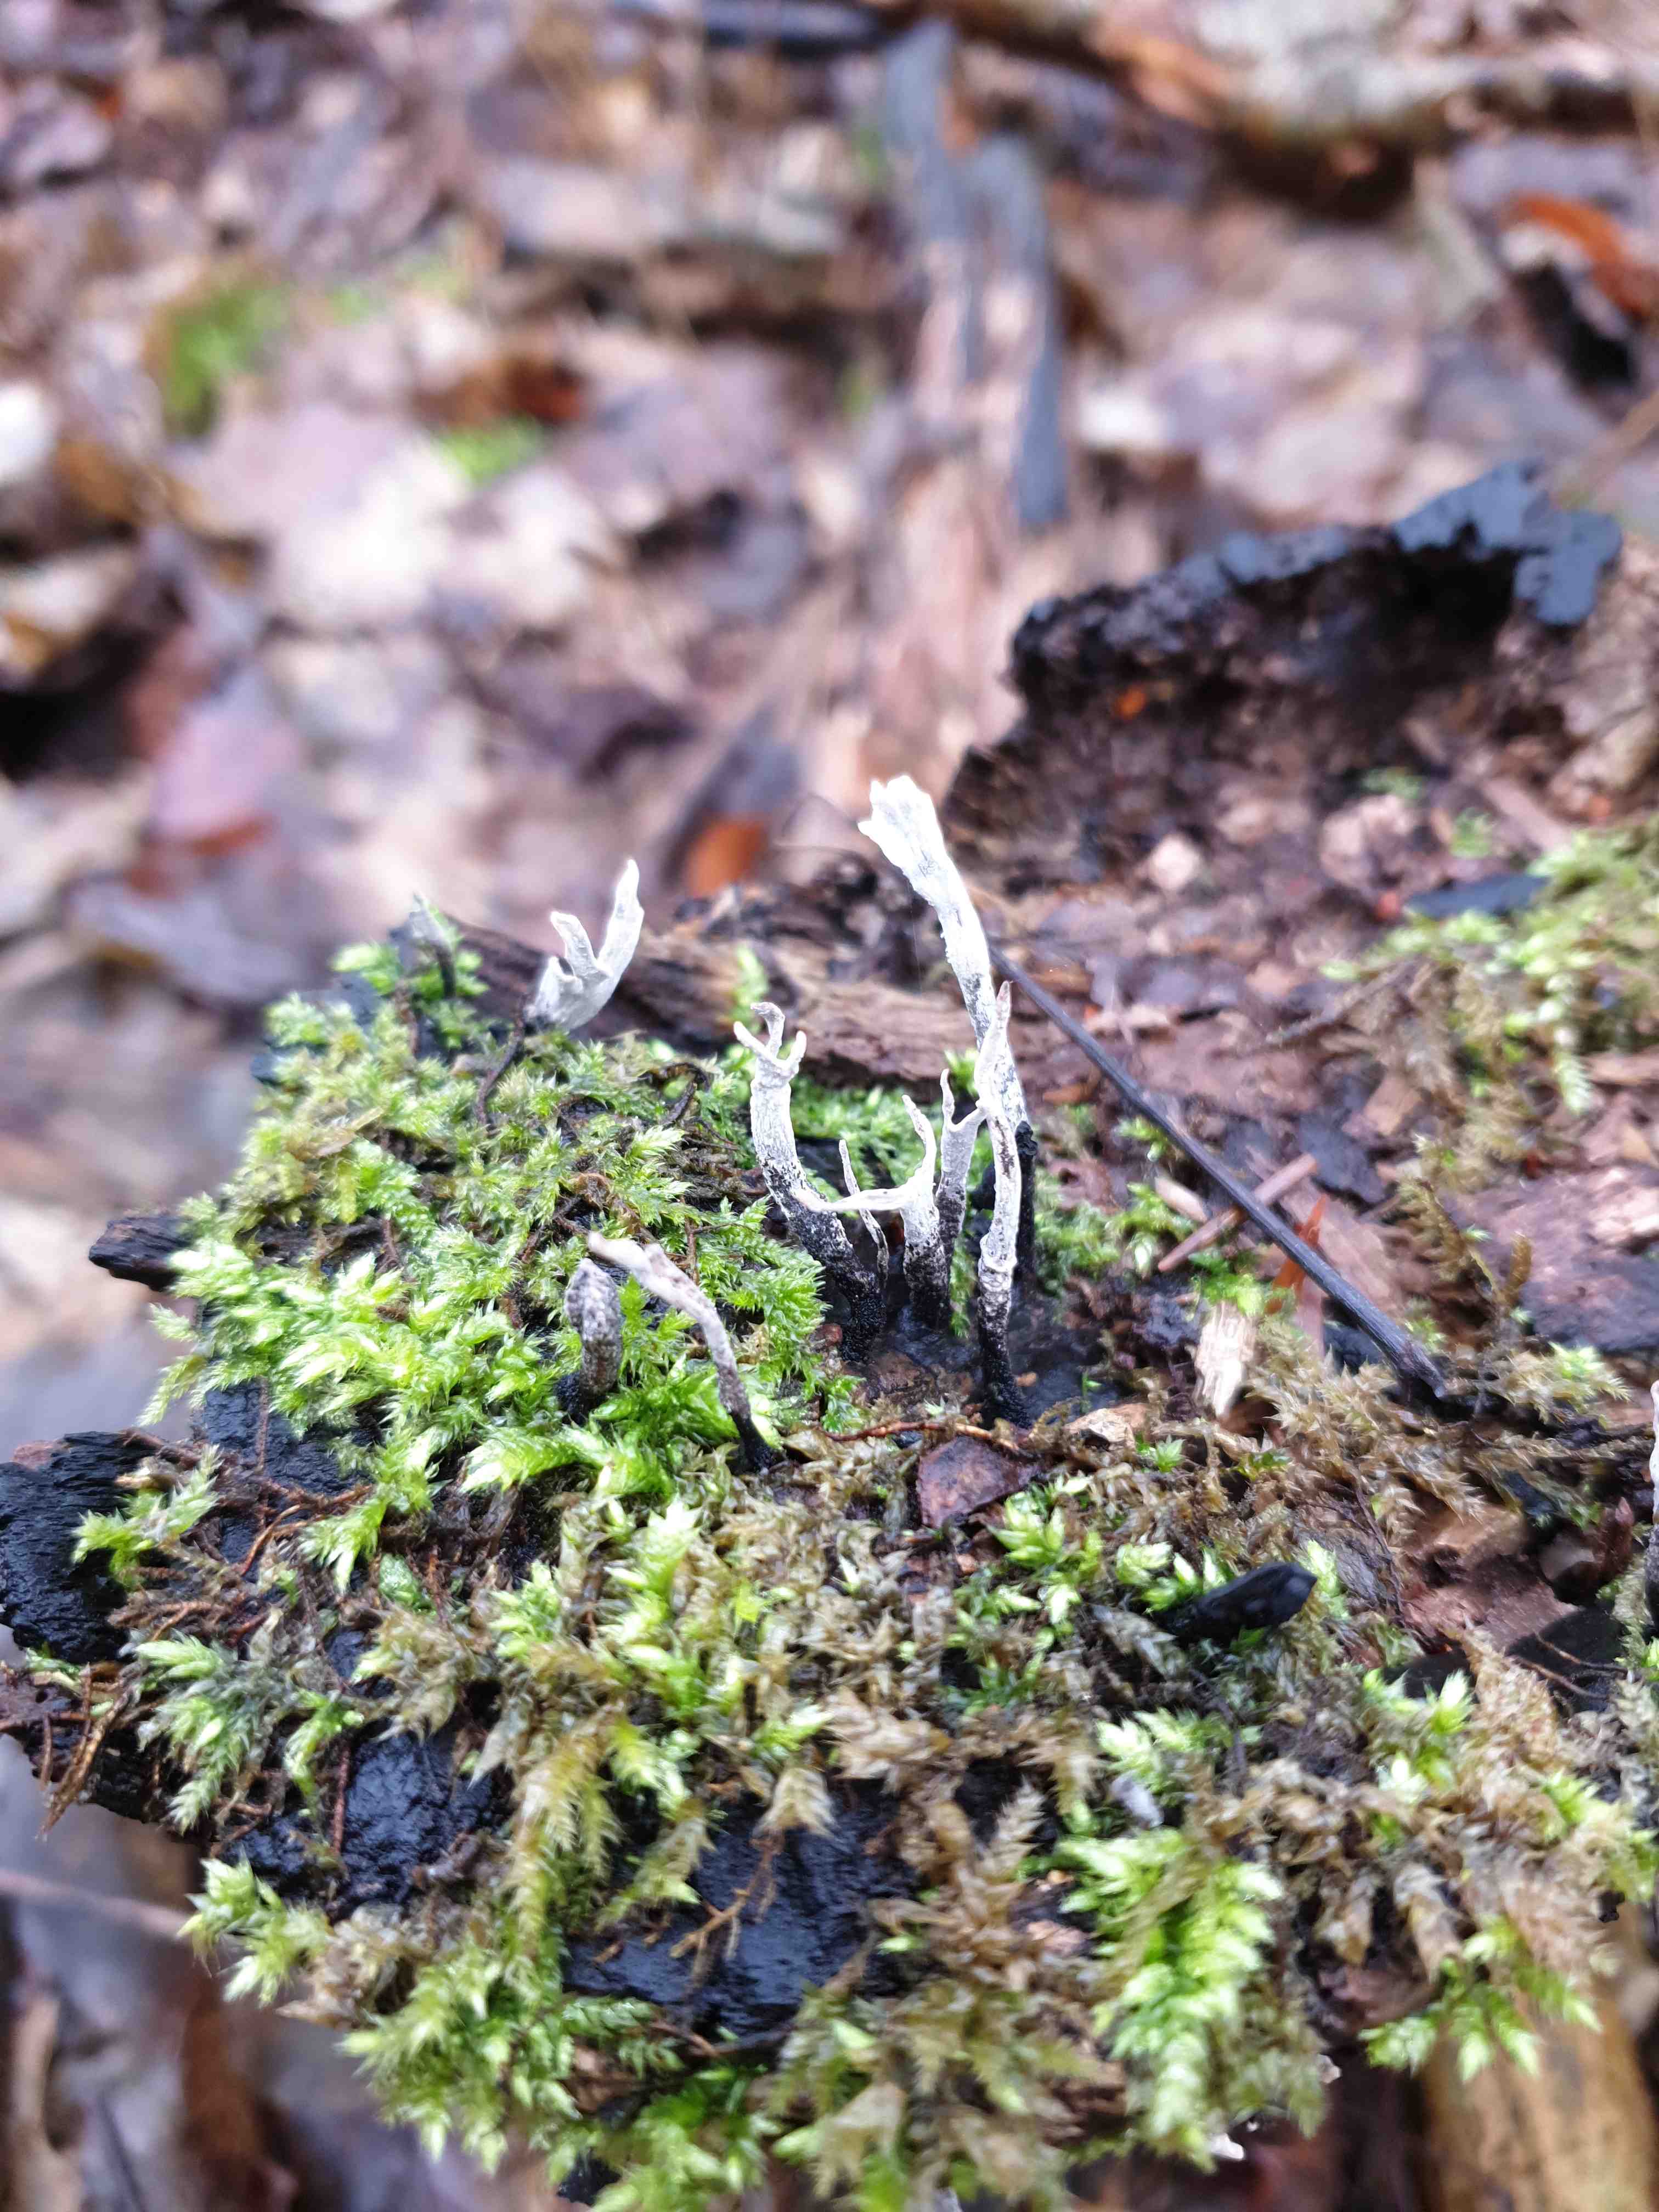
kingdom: Fungi
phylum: Ascomycota
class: Sordariomycetes
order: Xylariales
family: Xylariaceae
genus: Xylaria
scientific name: Xylaria hypoxylon
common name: grenet stødsvamp
